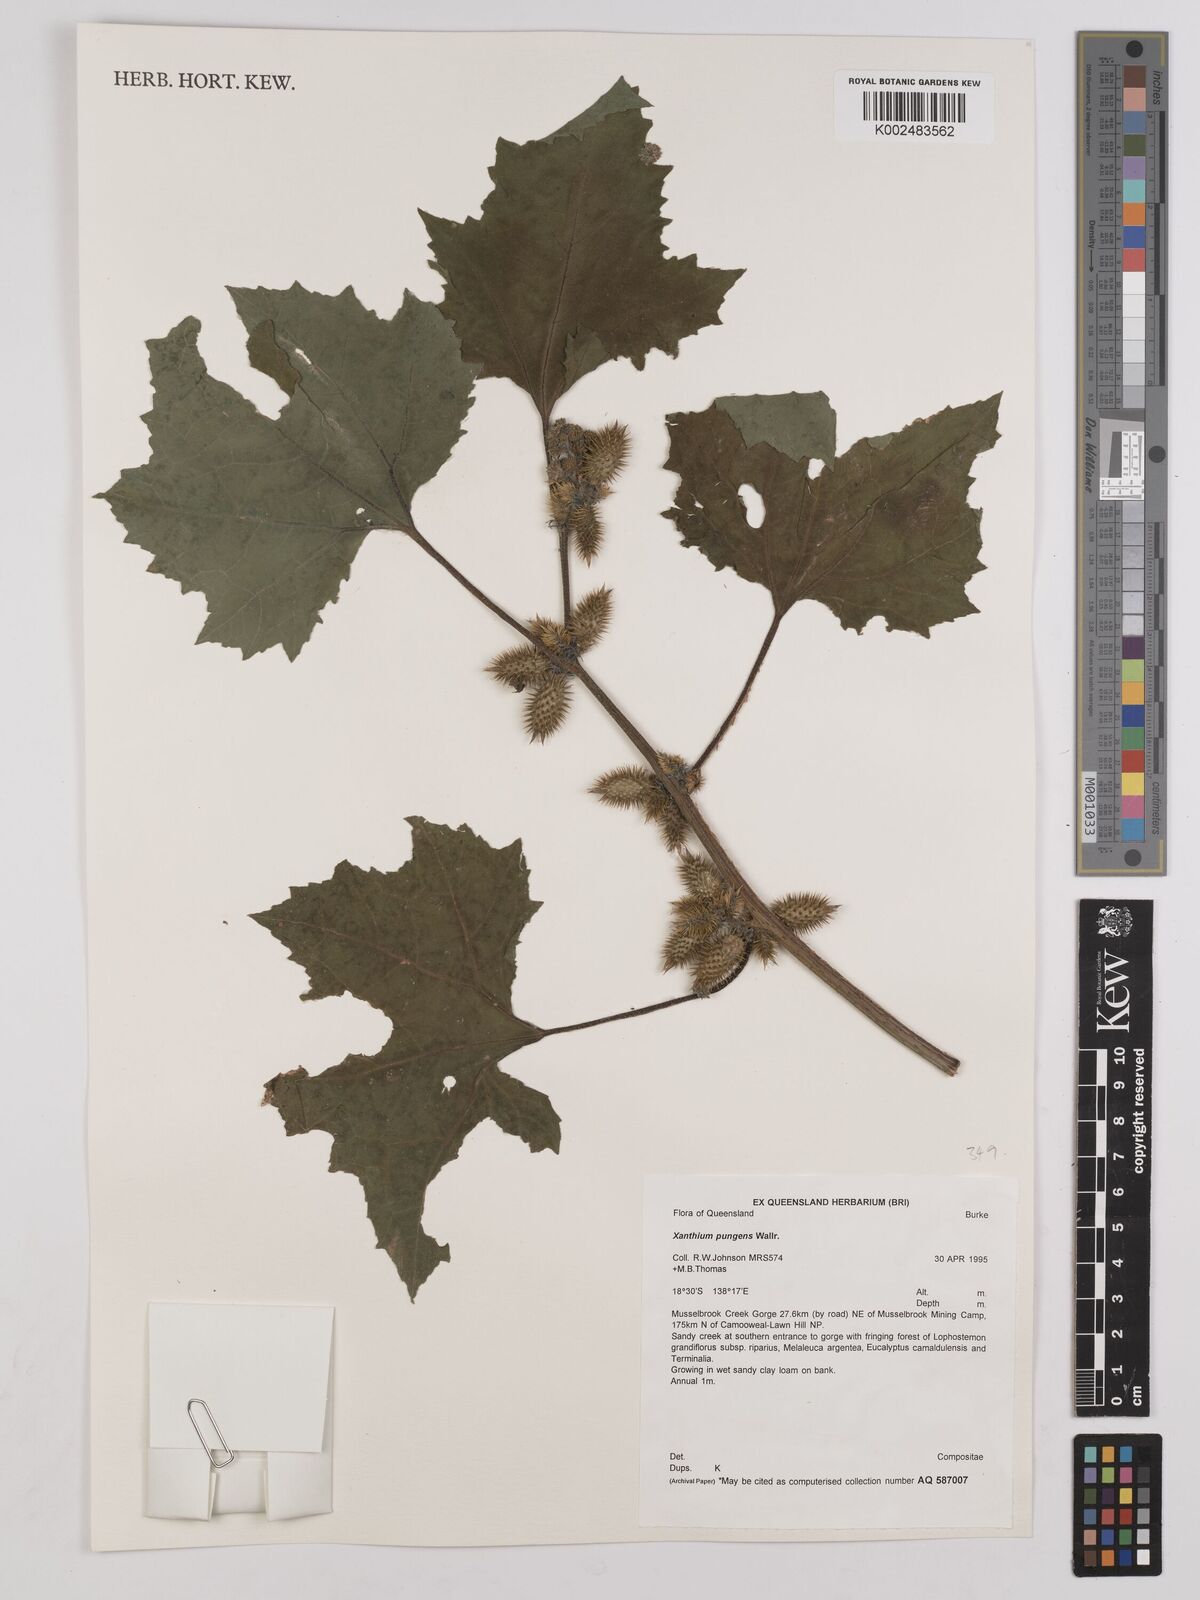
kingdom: Plantae
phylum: Tracheophyta
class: Magnoliopsida
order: Asterales
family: Asteraceae
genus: Xanthium
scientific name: Xanthium occidentale
